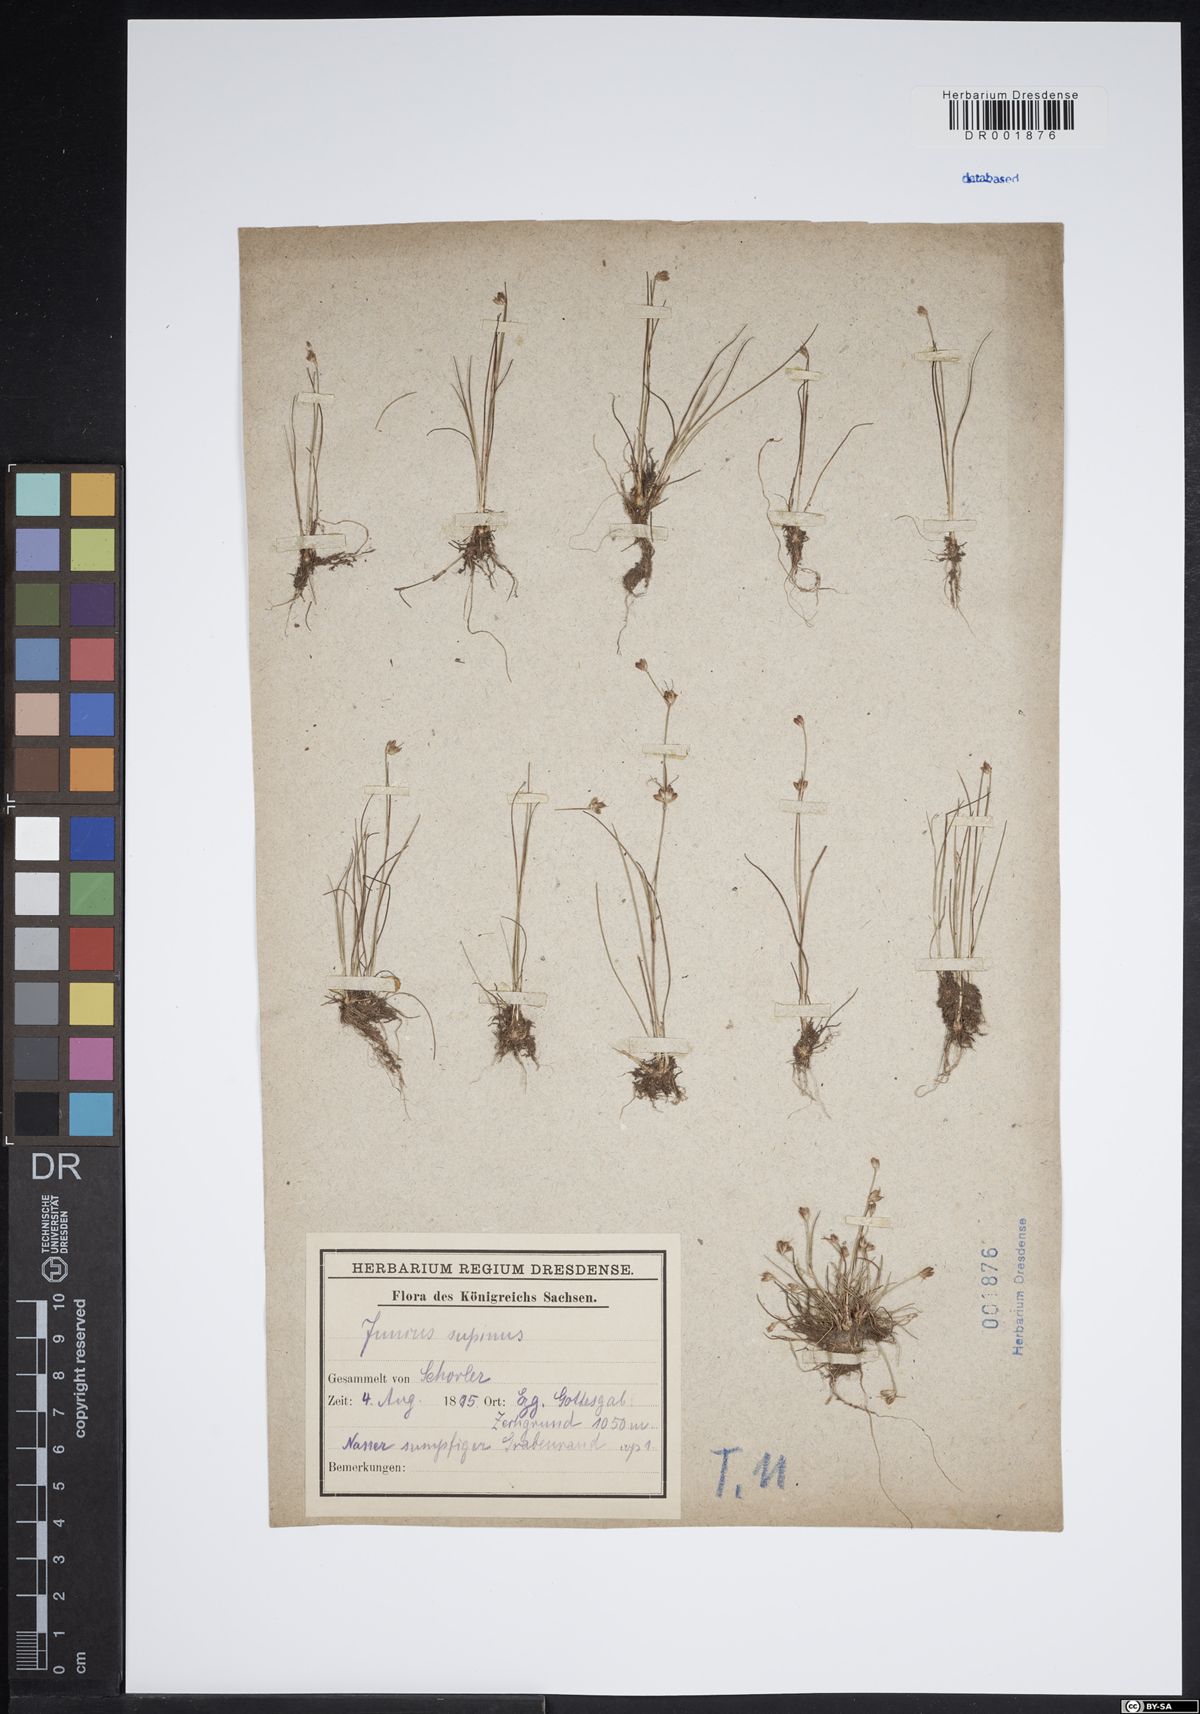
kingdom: Plantae
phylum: Tracheophyta
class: Liliopsida
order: Poales
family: Juncaceae
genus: Juncus
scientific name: Juncus bulbosus
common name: Bulbous rush
